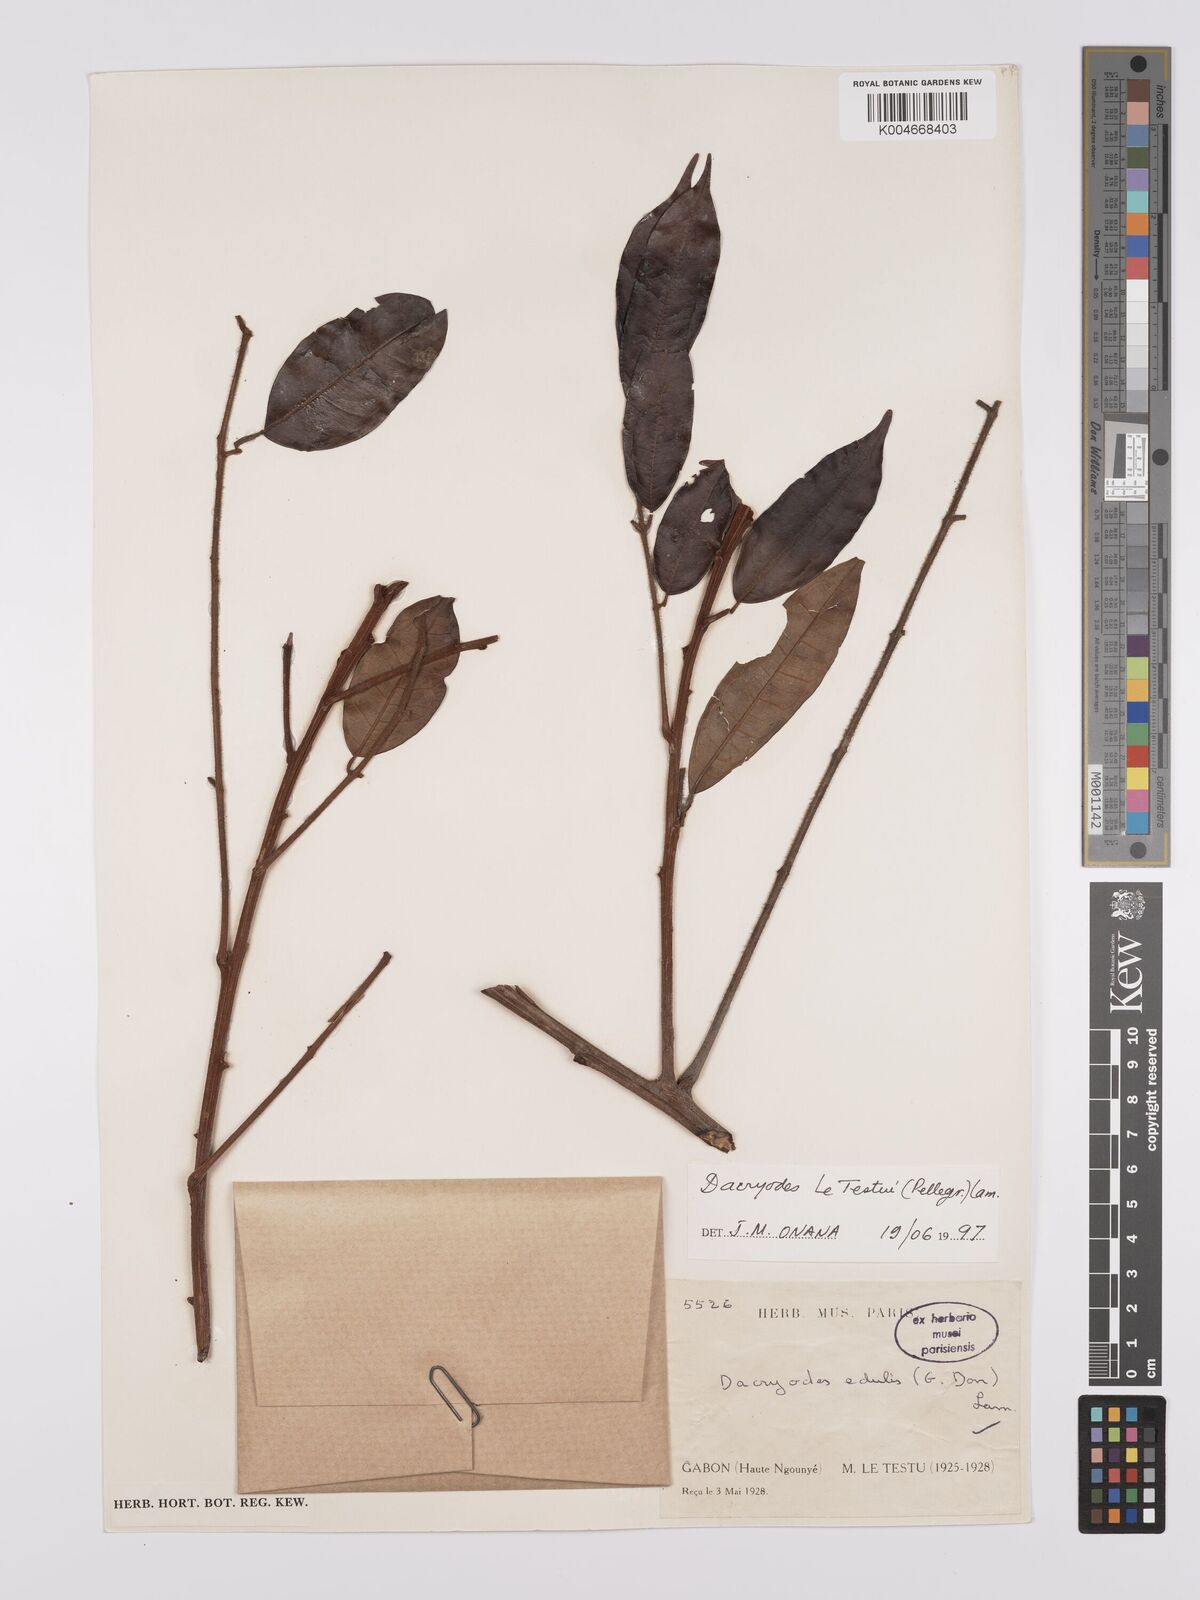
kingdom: Plantae
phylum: Tracheophyta
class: Magnoliopsida
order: Sapindales
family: Burseraceae
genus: Pachylobus
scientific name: Pachylobus letestui
